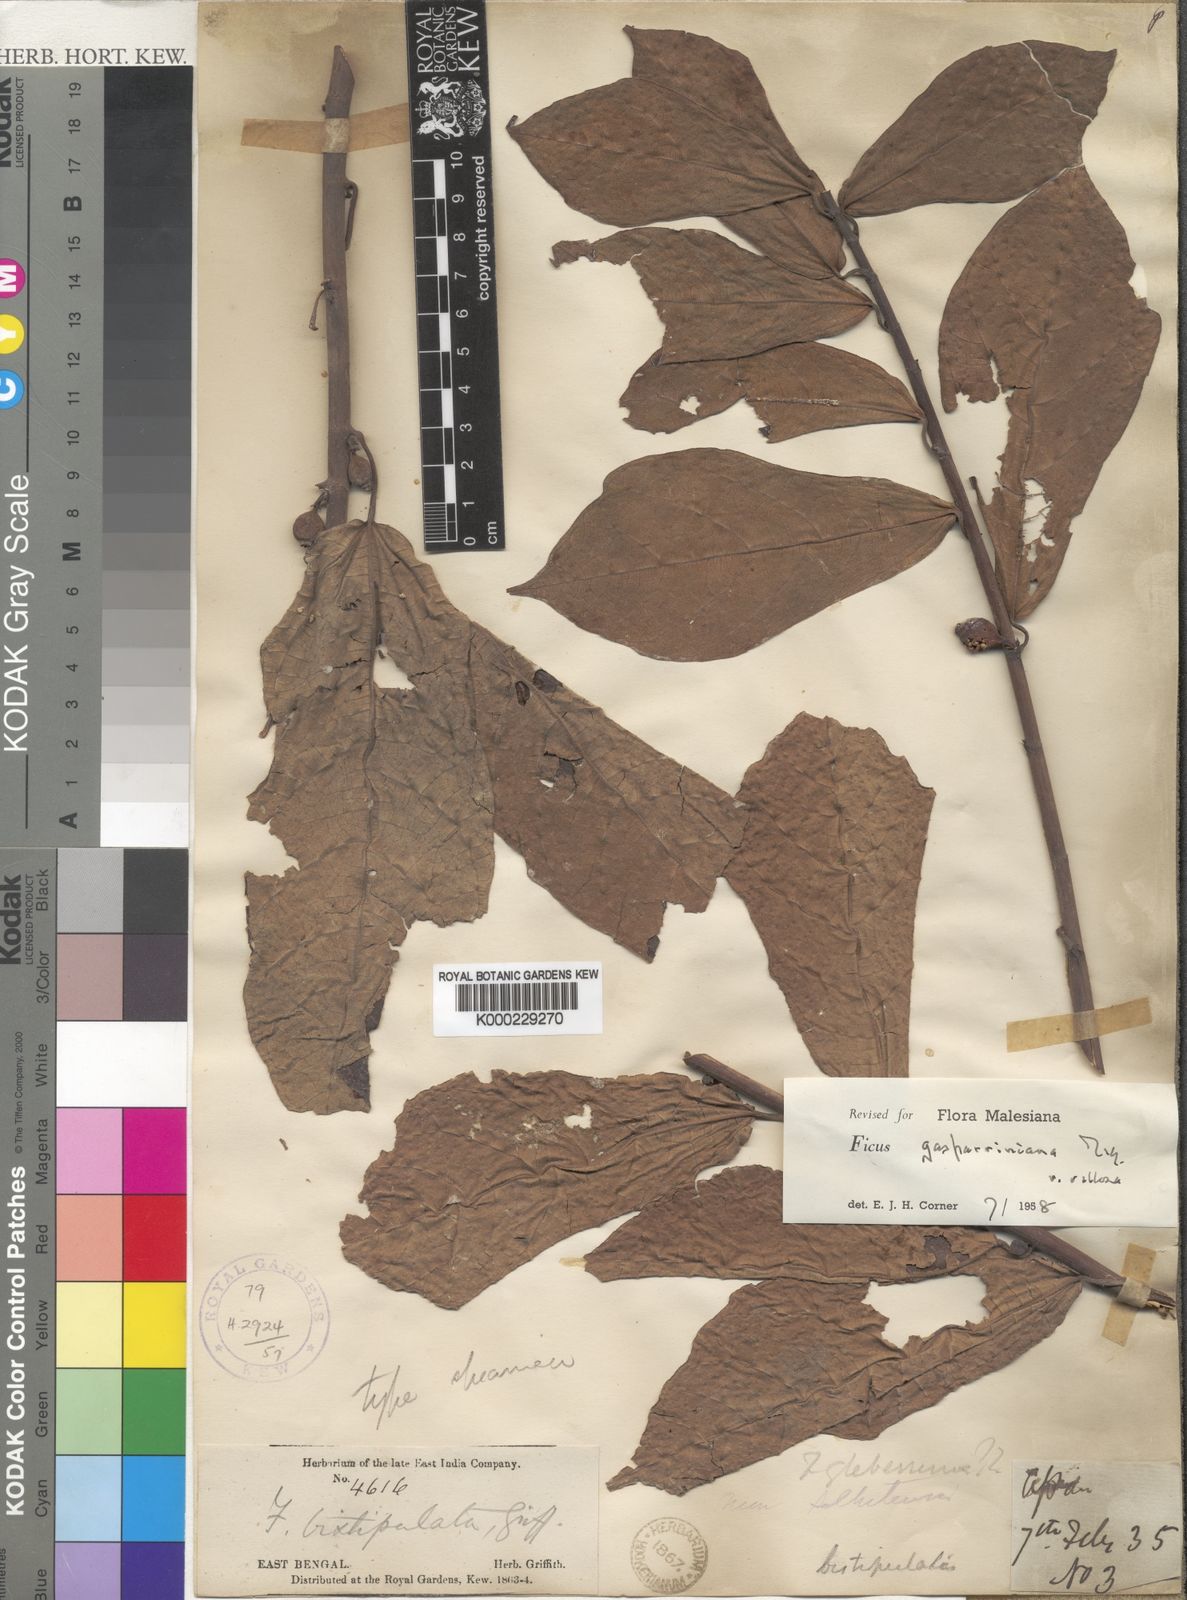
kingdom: Plantae
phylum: Tracheophyta
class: Magnoliopsida
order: Rosales
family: Moraceae
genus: Ficus
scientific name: Ficus glaberrima
